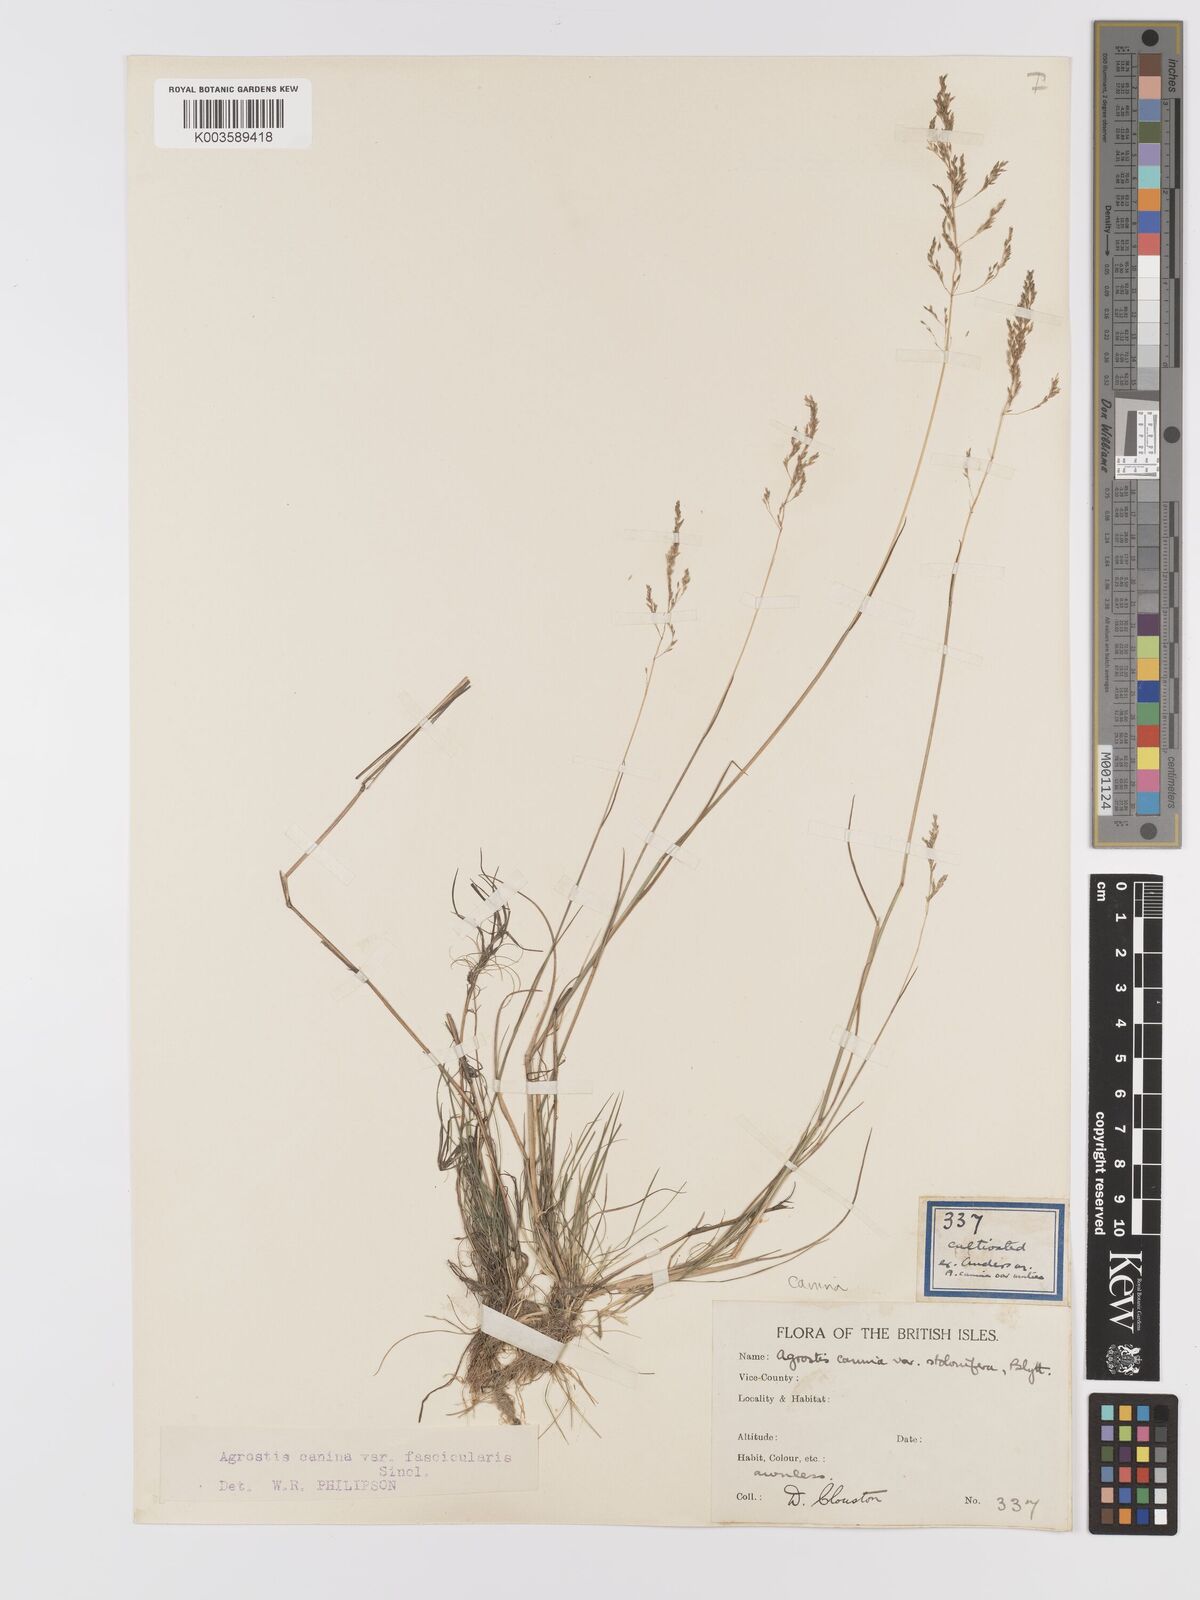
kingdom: Plantae
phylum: Tracheophyta
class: Liliopsida
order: Poales
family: Poaceae
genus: Agrostis
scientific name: Agrostis canina
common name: Velvet bent
